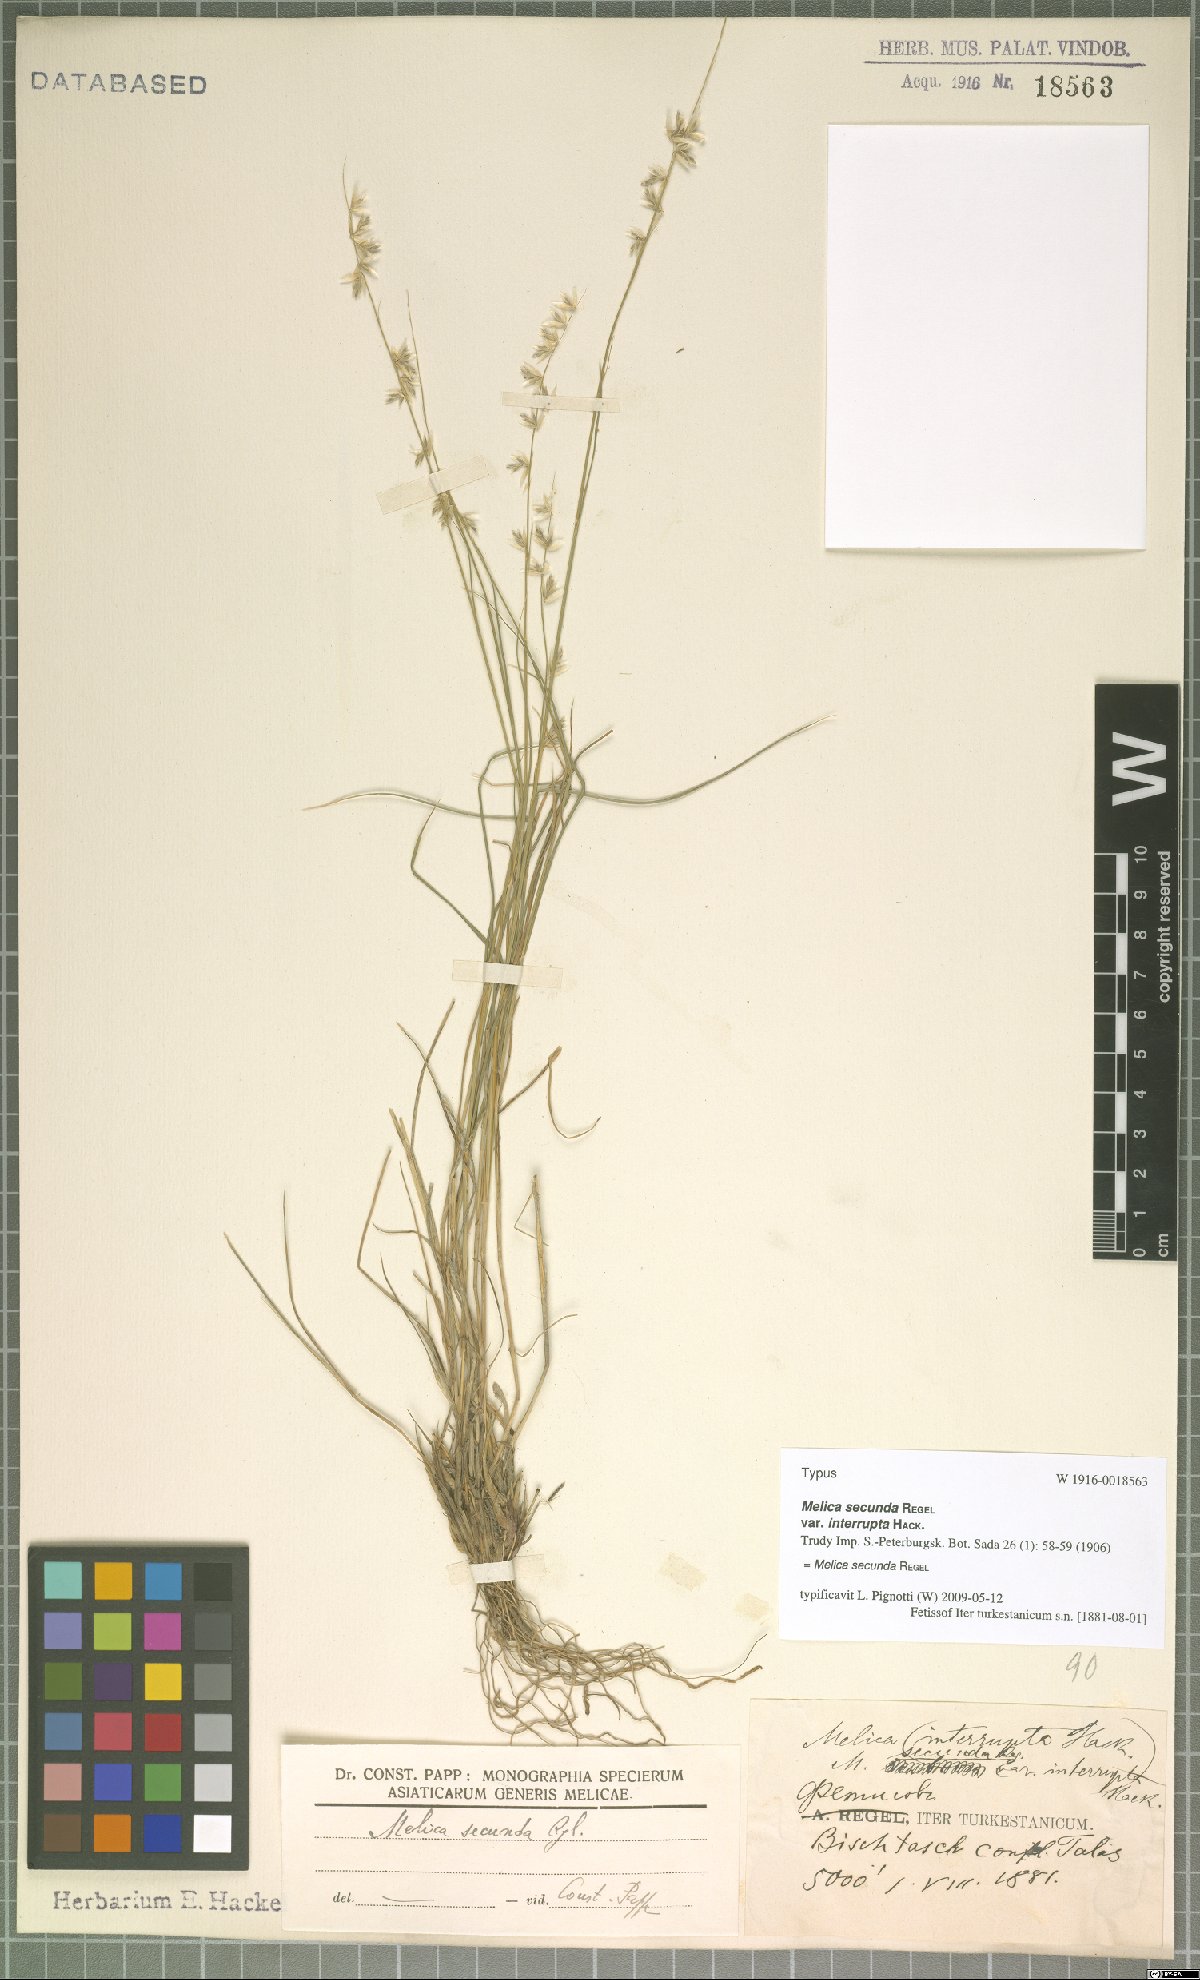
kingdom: Plantae
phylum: Tracheophyta
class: Liliopsida
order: Poales
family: Poaceae
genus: Melica
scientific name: Melica secunda
